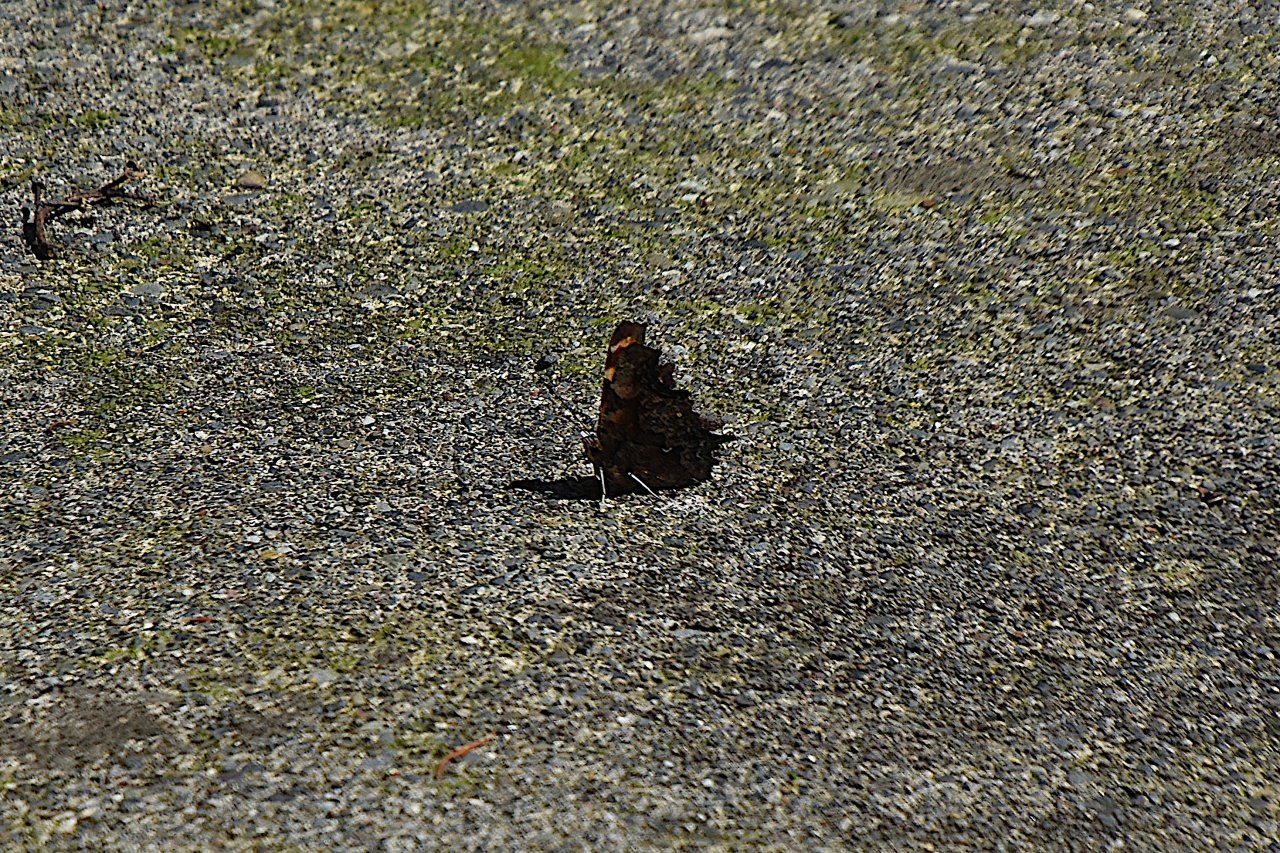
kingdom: Animalia
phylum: Arthropoda
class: Insecta
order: Lepidoptera
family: Nymphalidae
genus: Polygonia
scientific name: Polygonia faunus
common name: Green Comma
